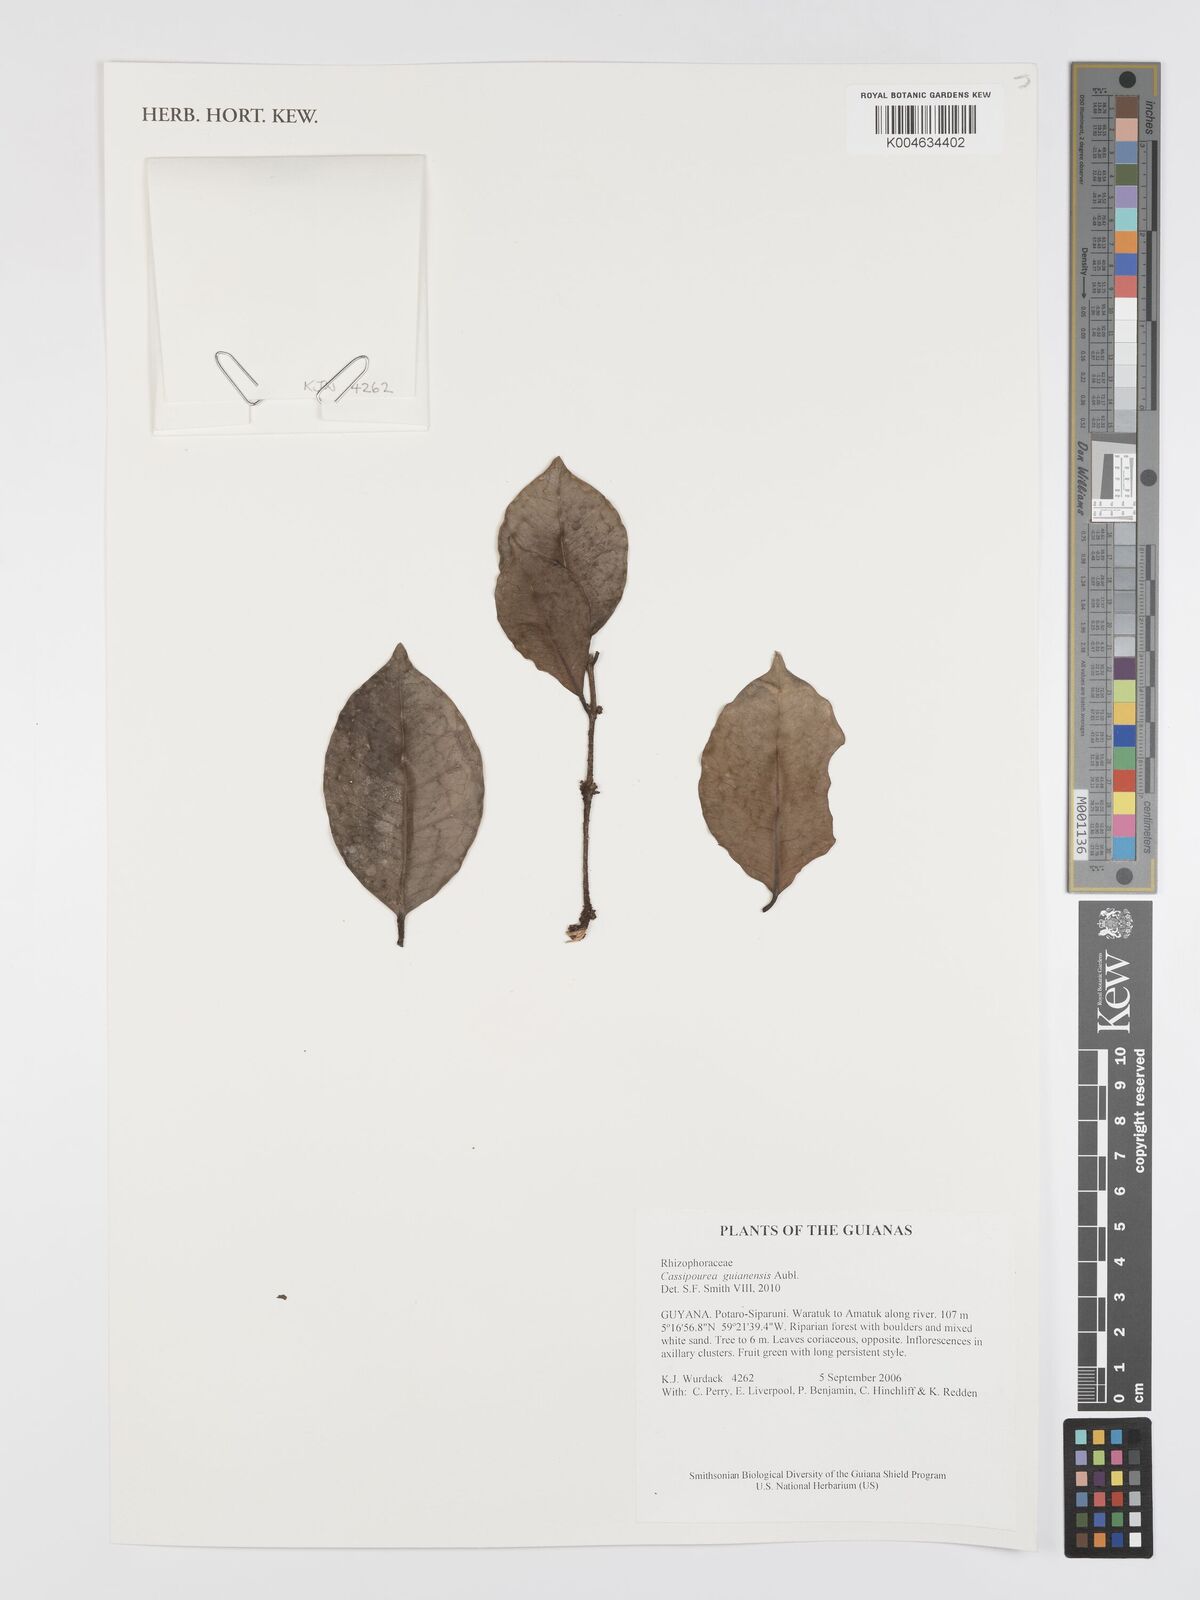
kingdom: Plantae
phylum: Tracheophyta
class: Magnoliopsida
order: Malpighiales
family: Rhizophoraceae
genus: Cassipourea
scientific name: Cassipourea guianensis
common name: Bastard waterwood
